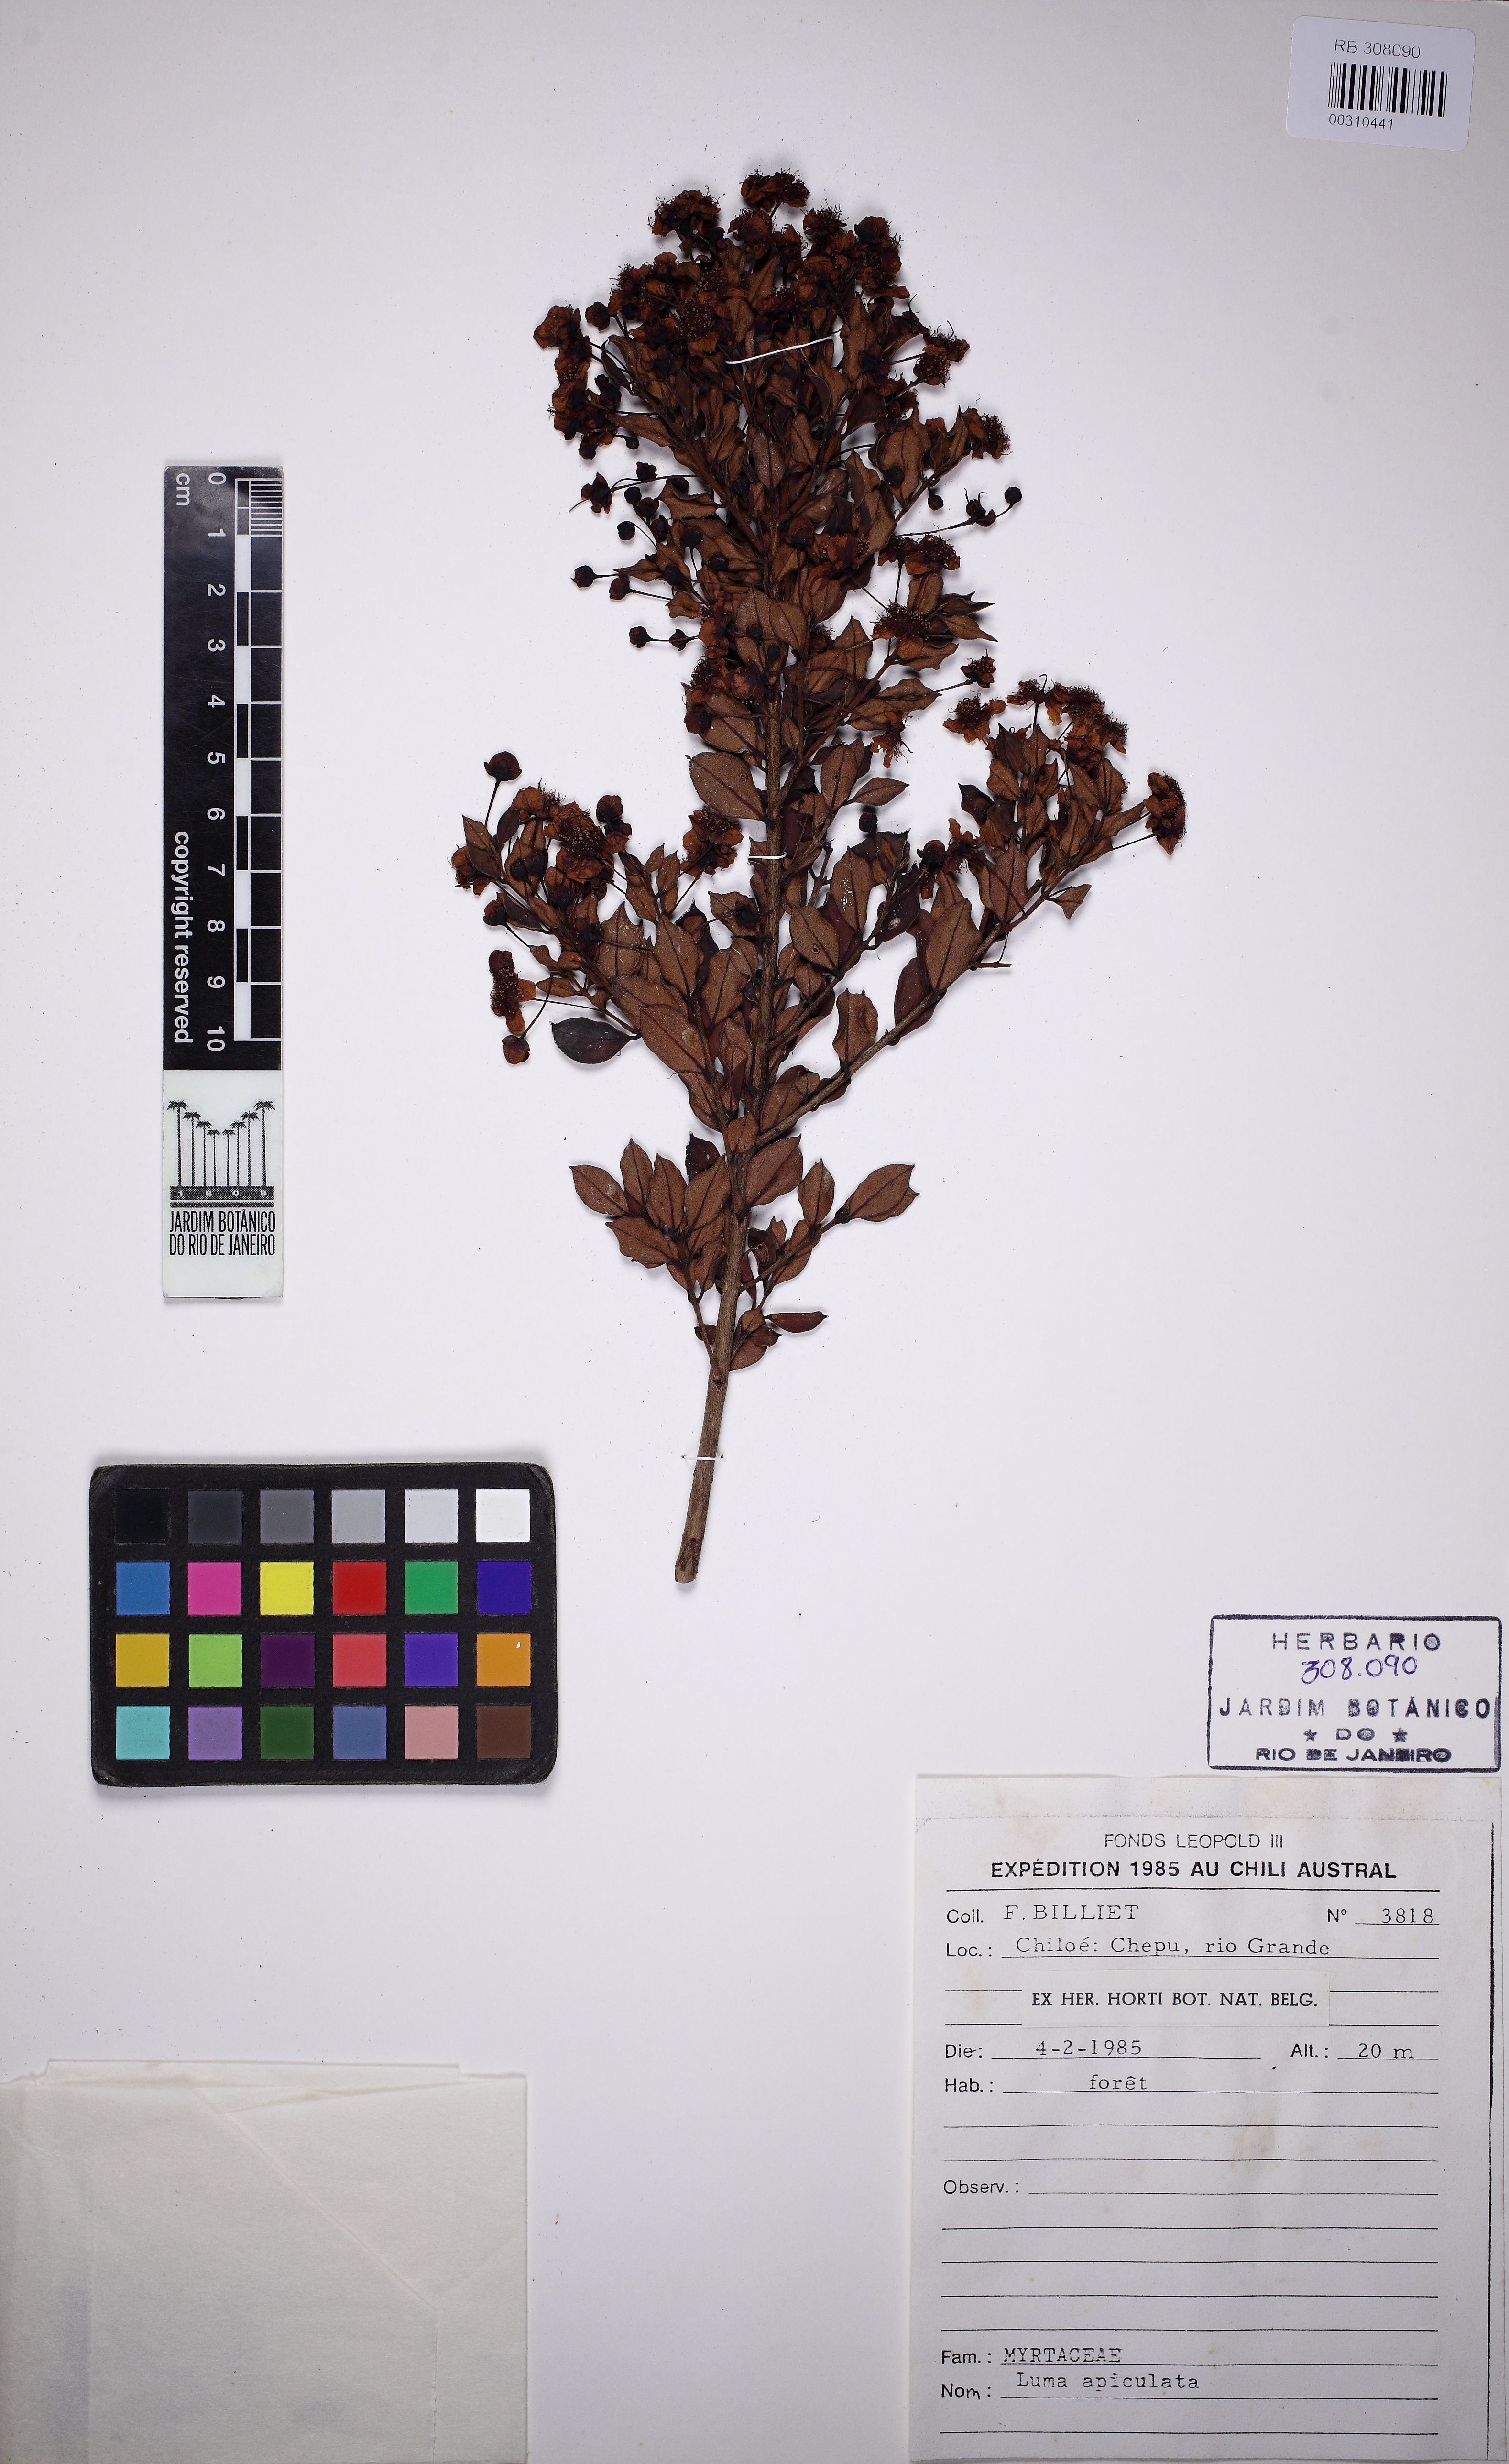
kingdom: Plantae
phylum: Tracheophyta
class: Magnoliopsida
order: Myrtales
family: Myrtaceae
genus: Luma
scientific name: Luma apiculata
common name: Chilean myrtle
